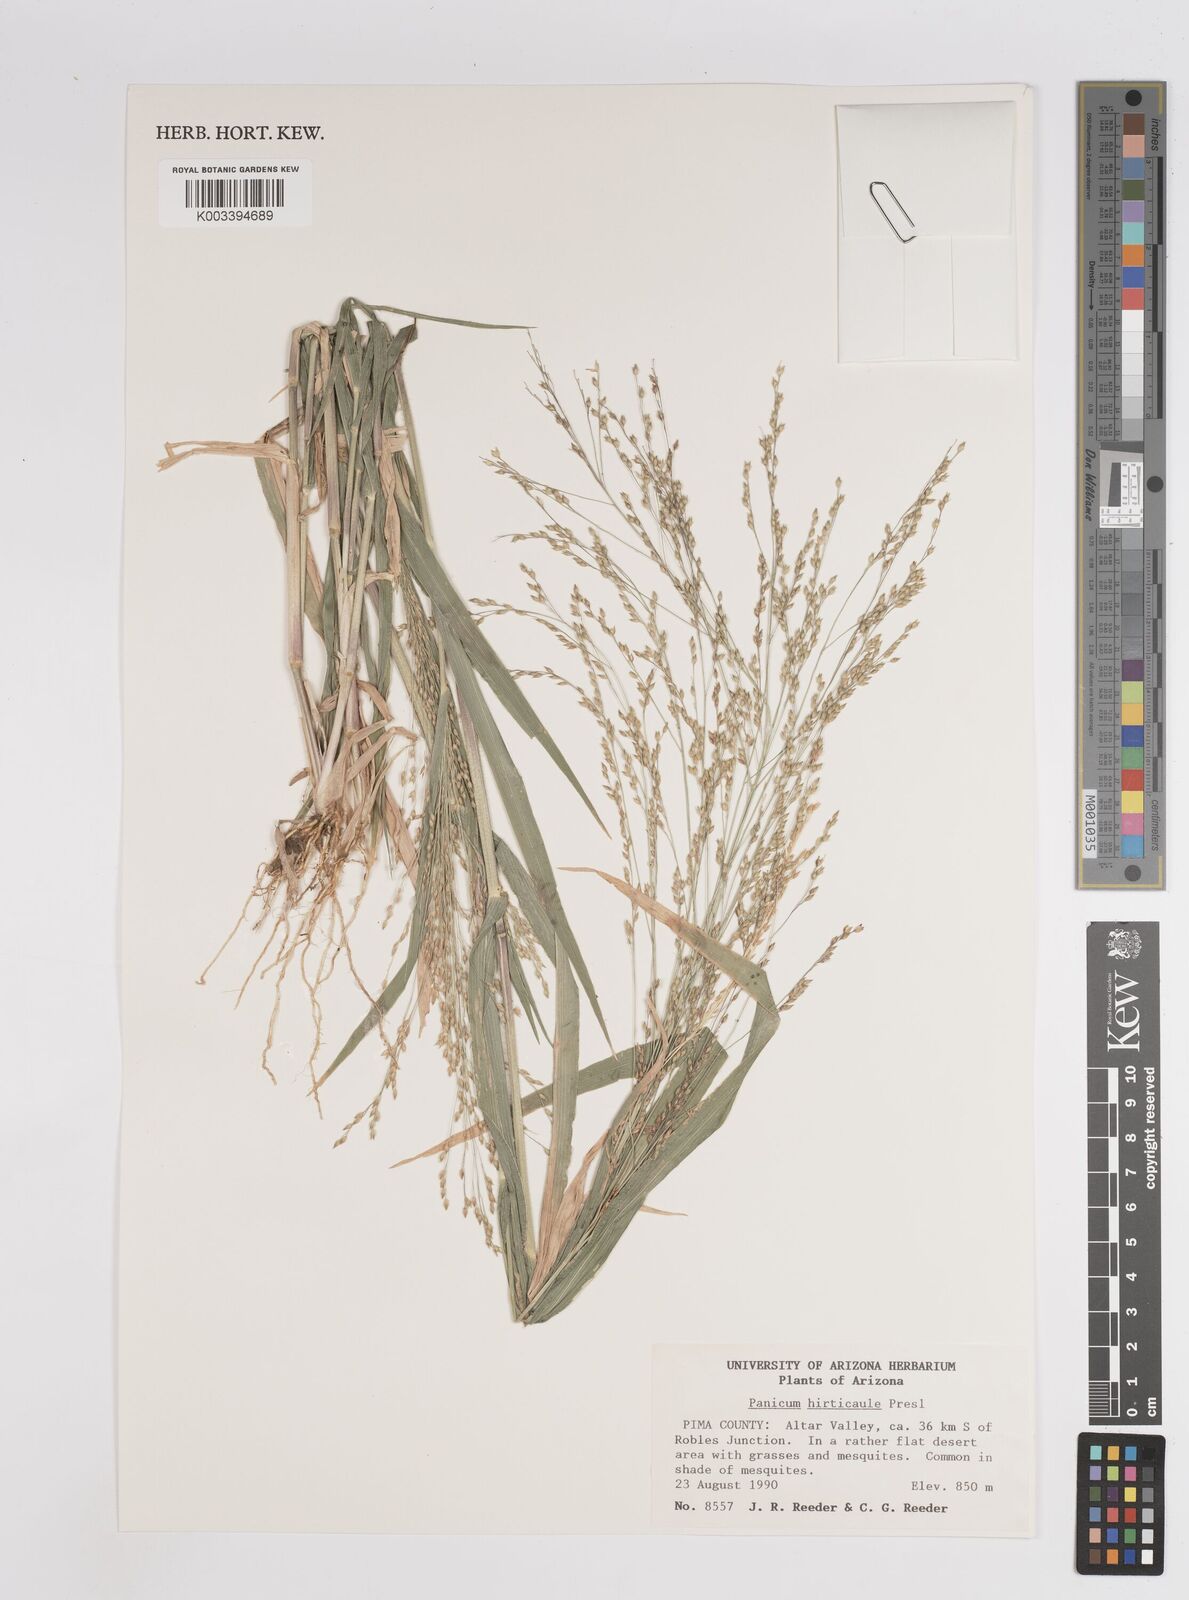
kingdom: Plantae
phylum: Tracheophyta
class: Liliopsida
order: Poales
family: Poaceae
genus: Panicum
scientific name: Panicum
